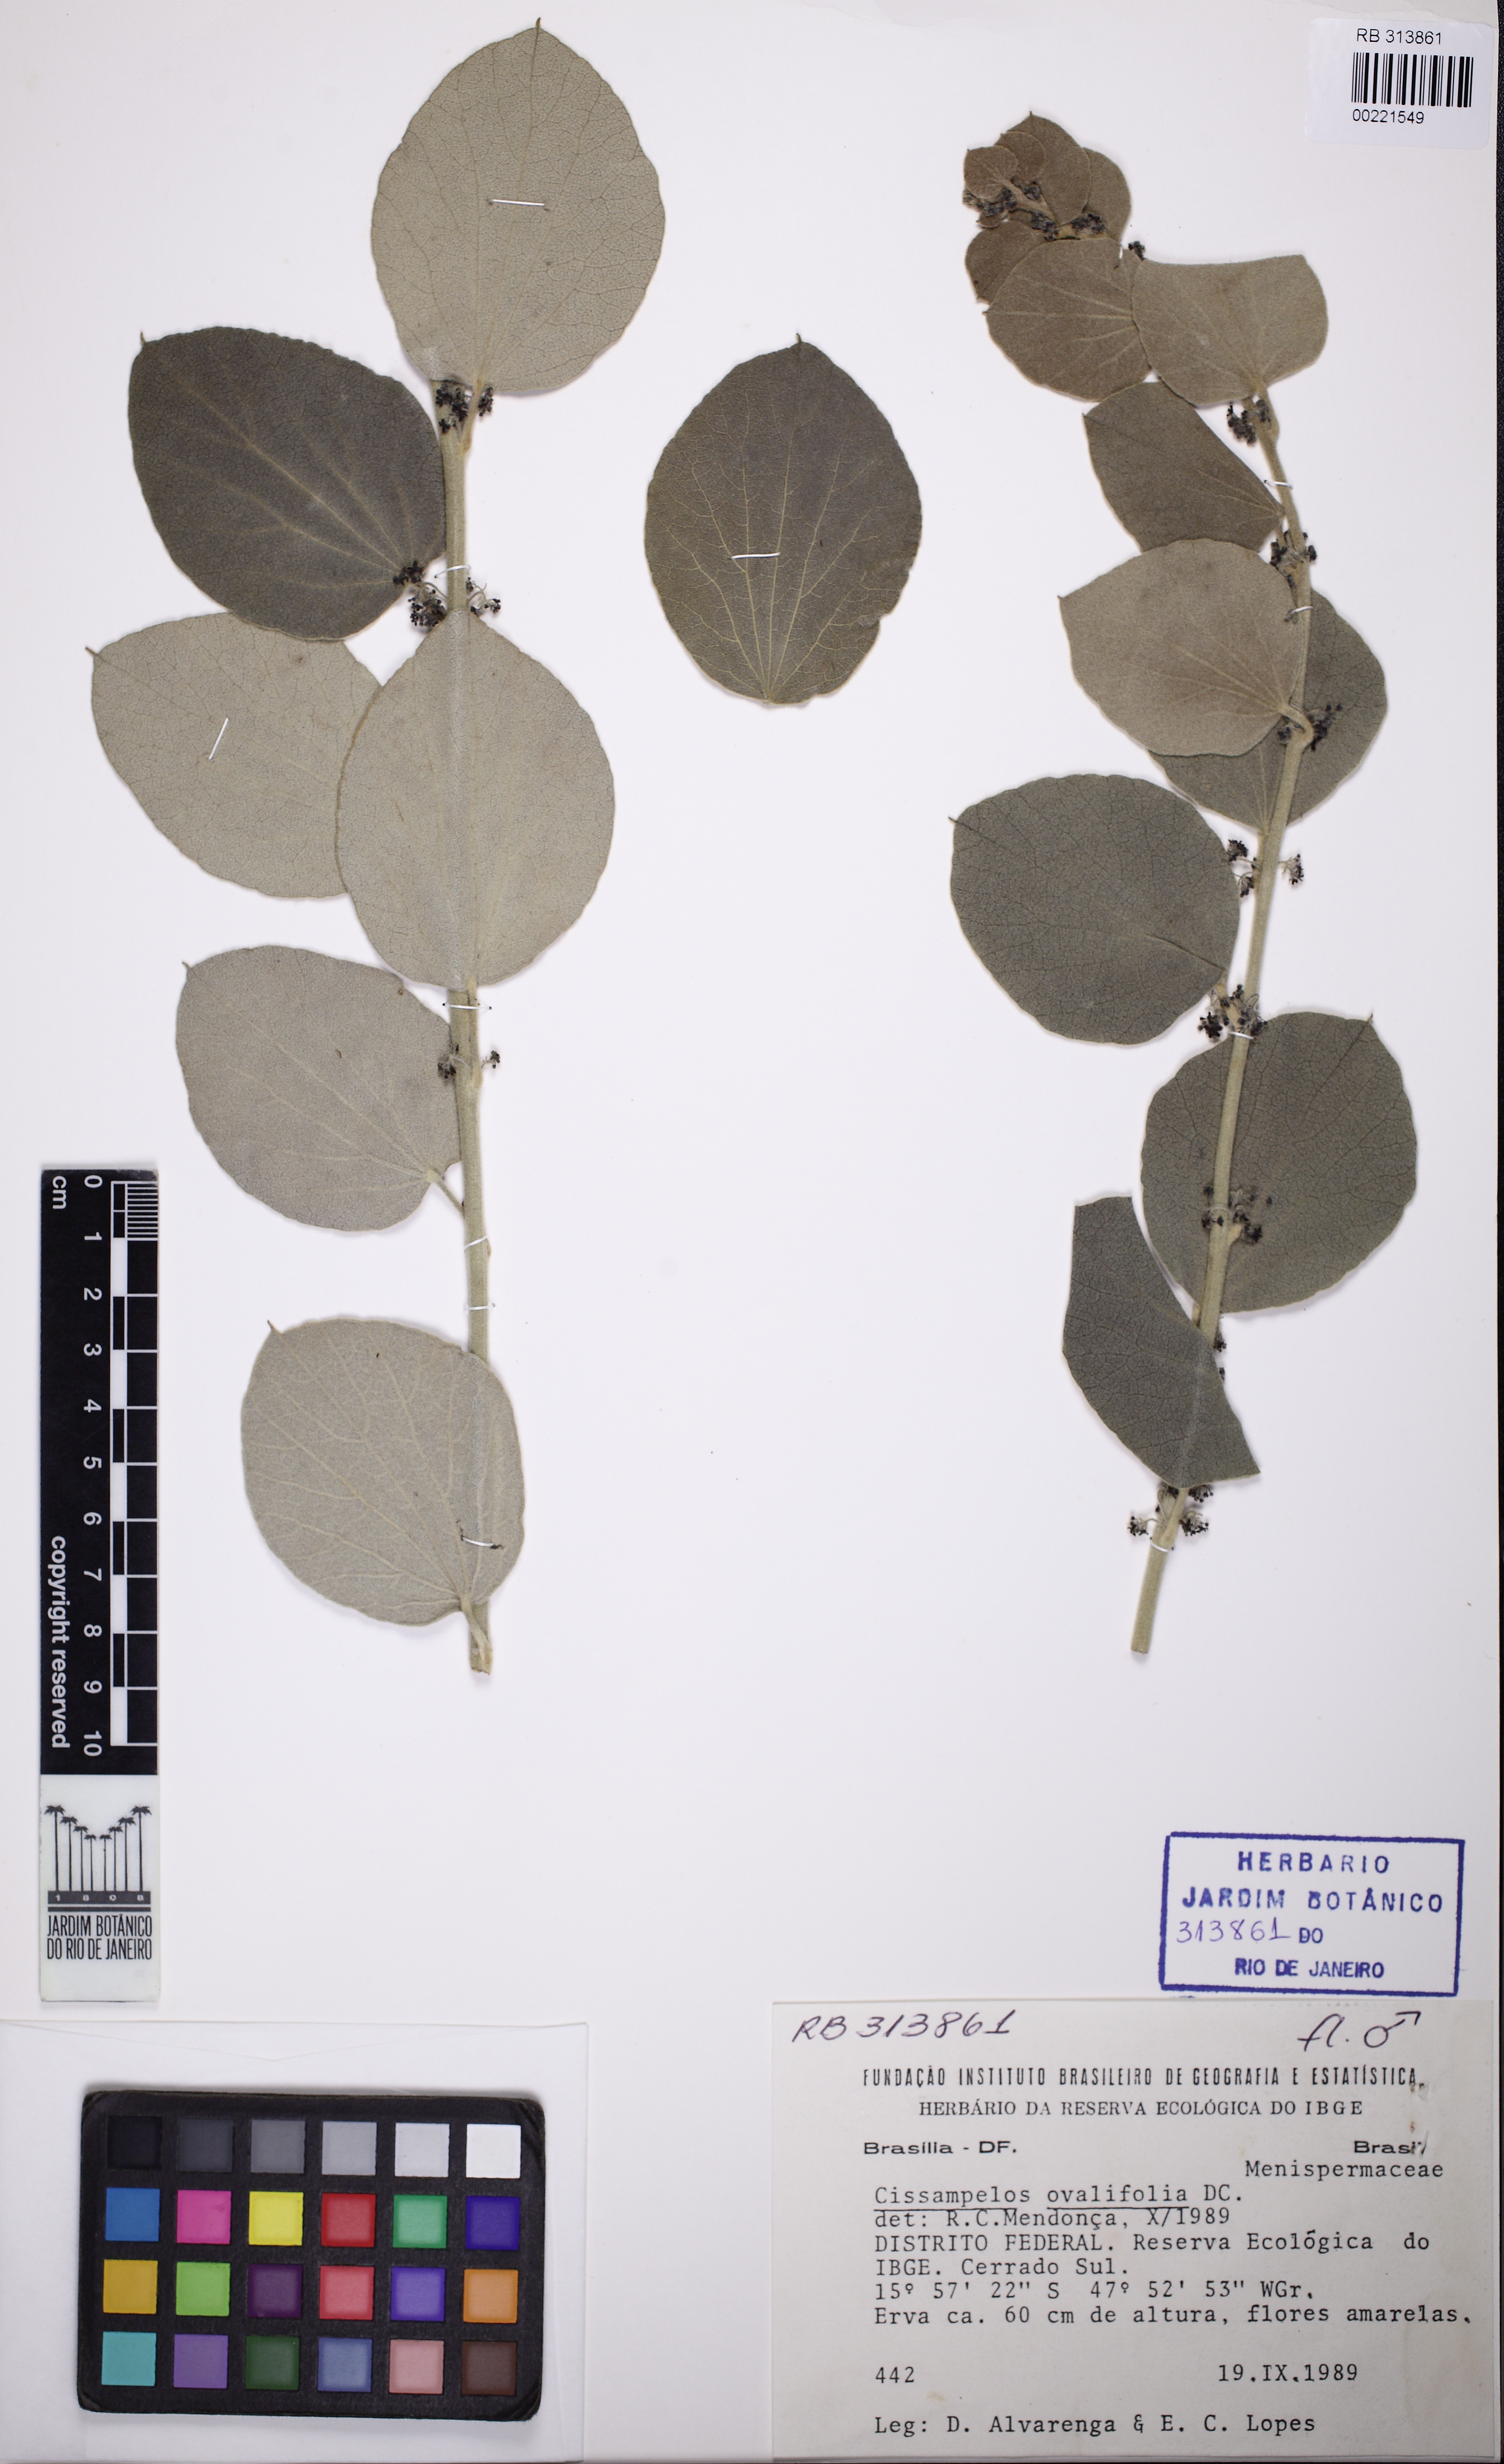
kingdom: Plantae
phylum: Tracheophyta
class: Magnoliopsida
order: Ranunculales
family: Menispermaceae
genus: Cissampelos
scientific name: Cissampelos ovalifolia
